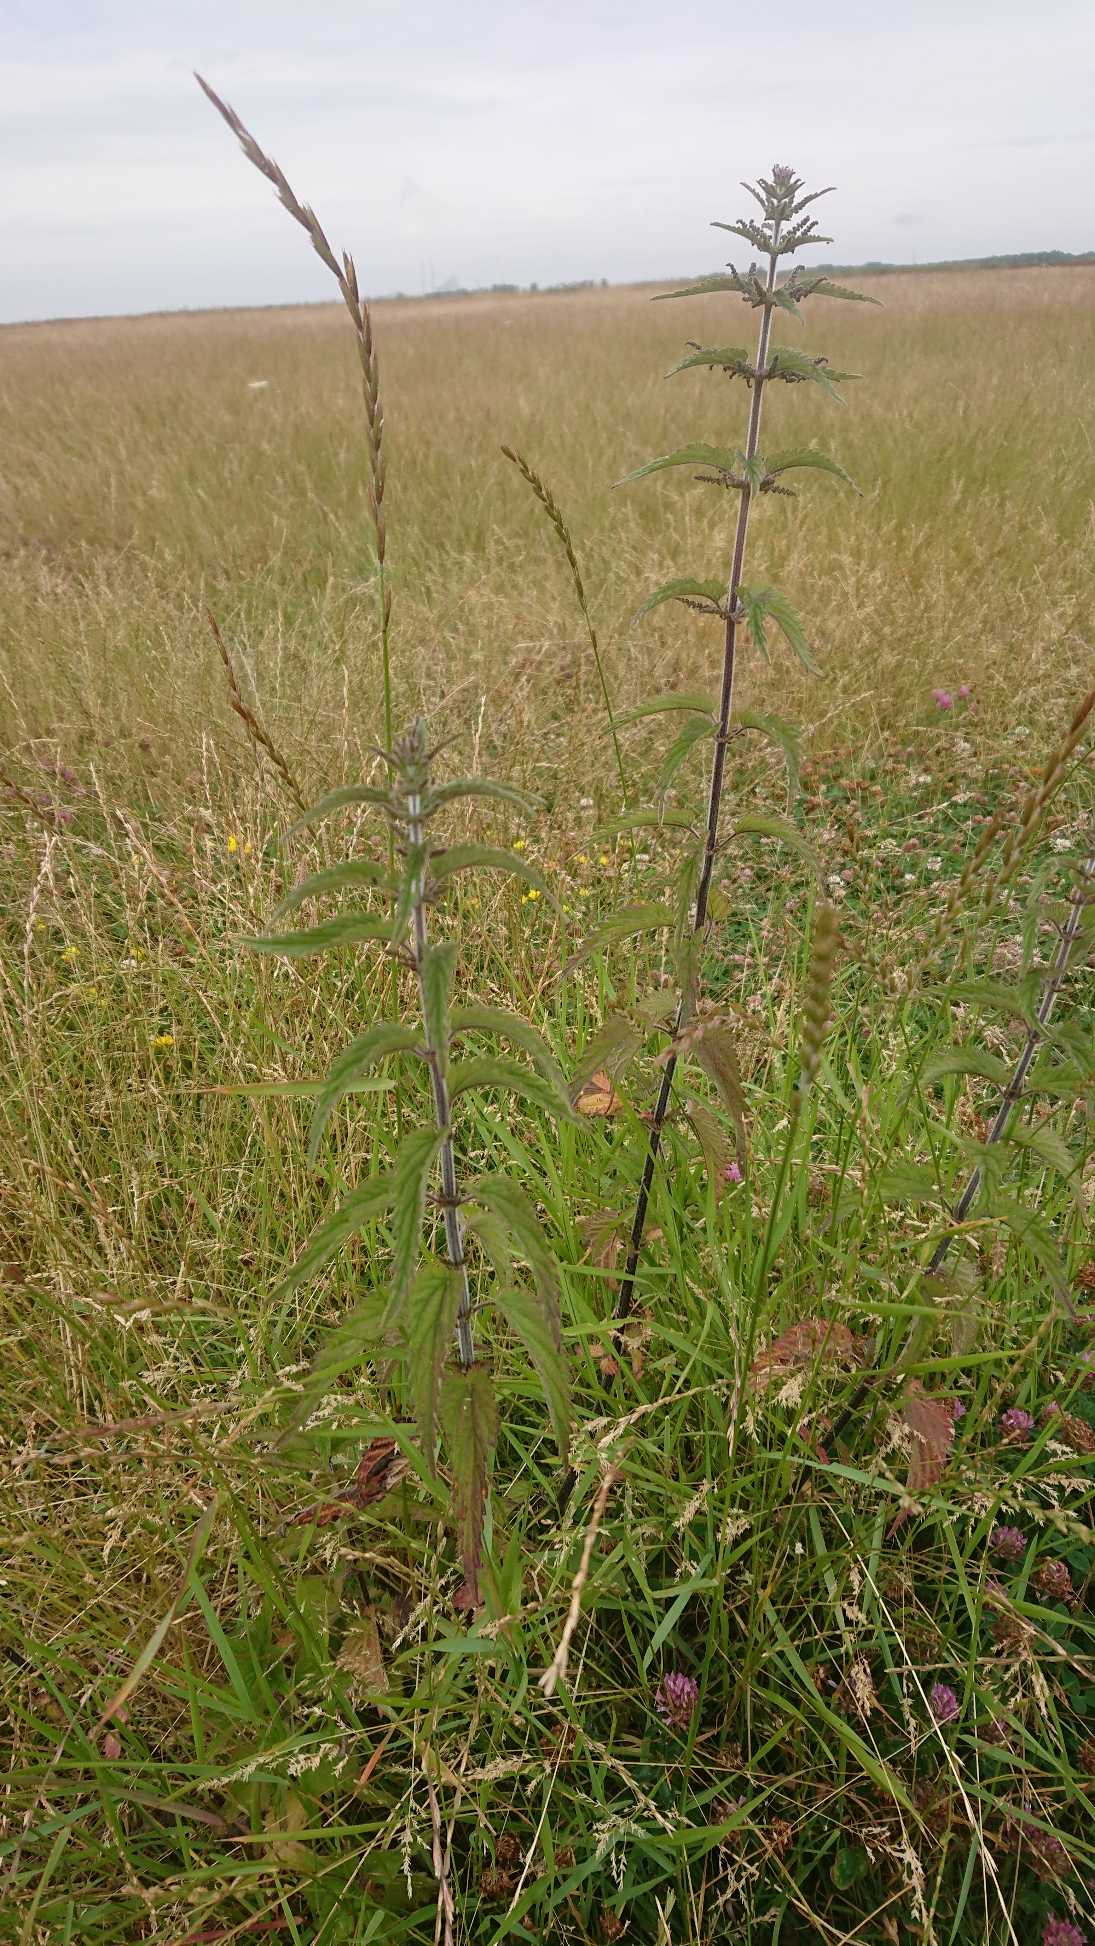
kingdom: Plantae
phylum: Tracheophyta
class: Magnoliopsida
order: Rosales
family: Urticaceae
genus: Urtica
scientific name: Urtica dioica
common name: Stor nælde
